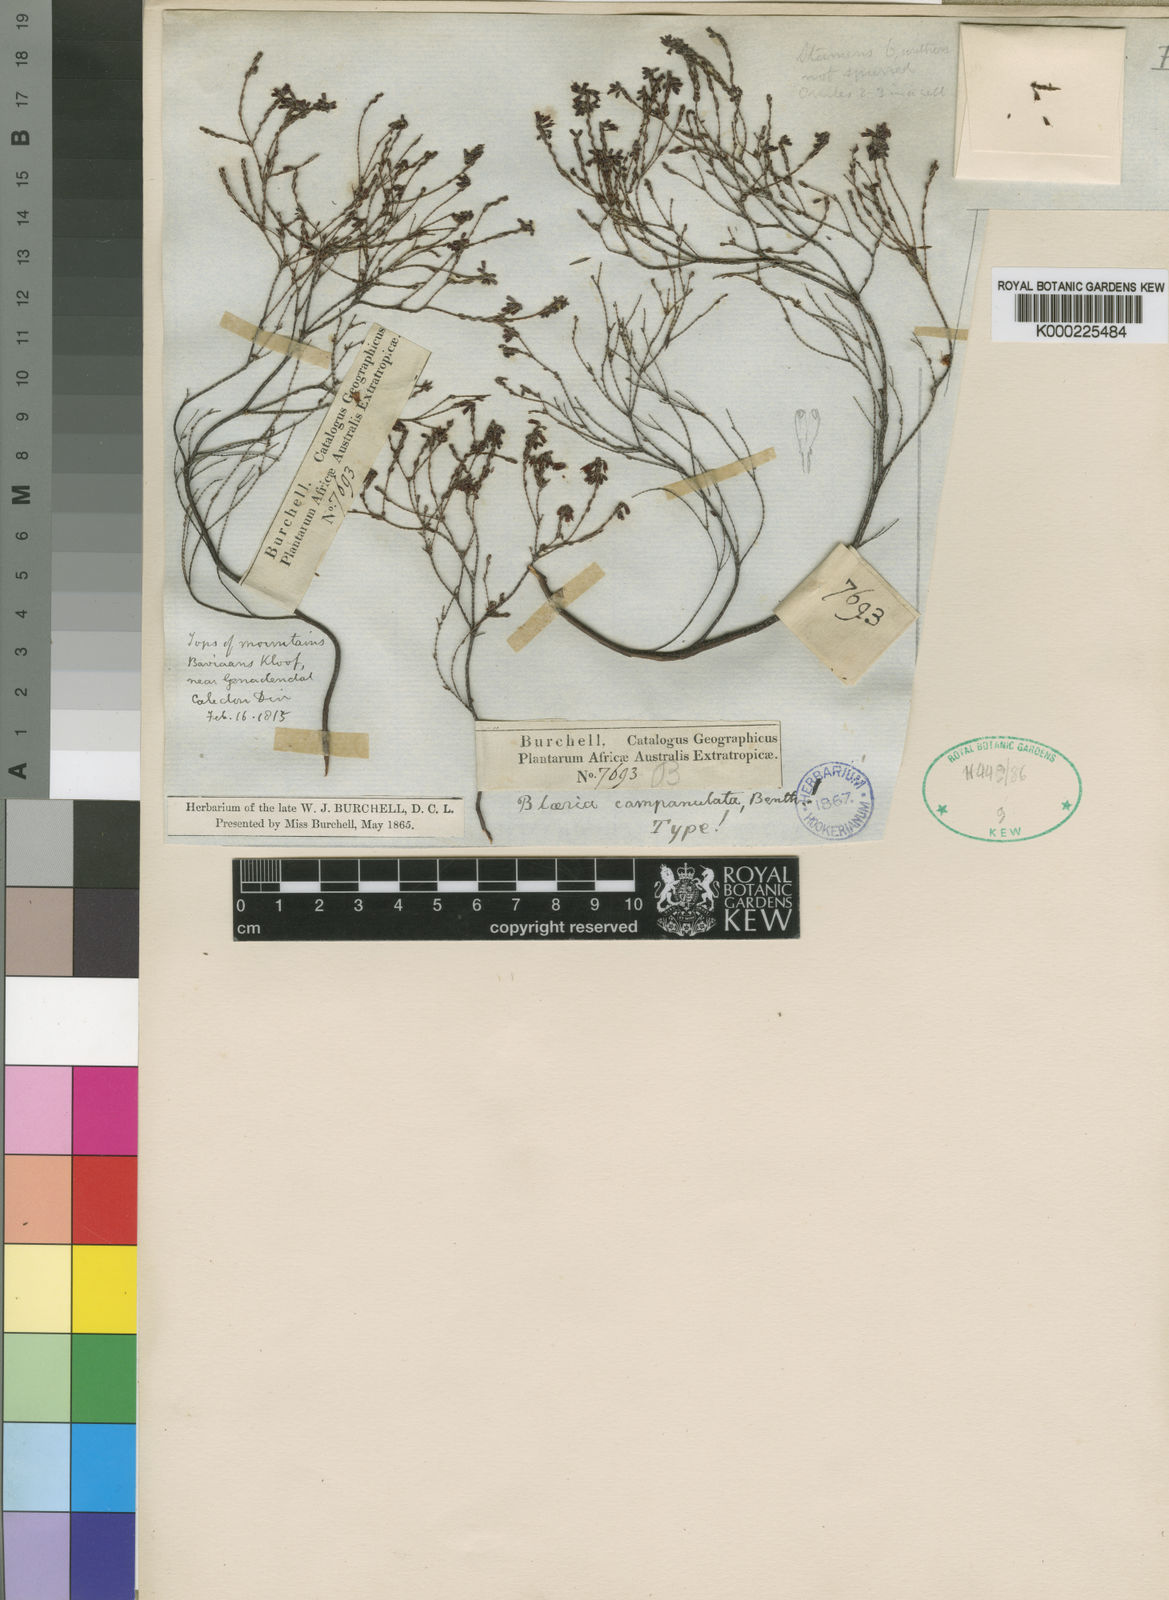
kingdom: Plantae
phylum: Tracheophyta
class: Magnoliopsida
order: Ericales
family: Ericaceae
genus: Erica
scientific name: Erica equisetifolia
